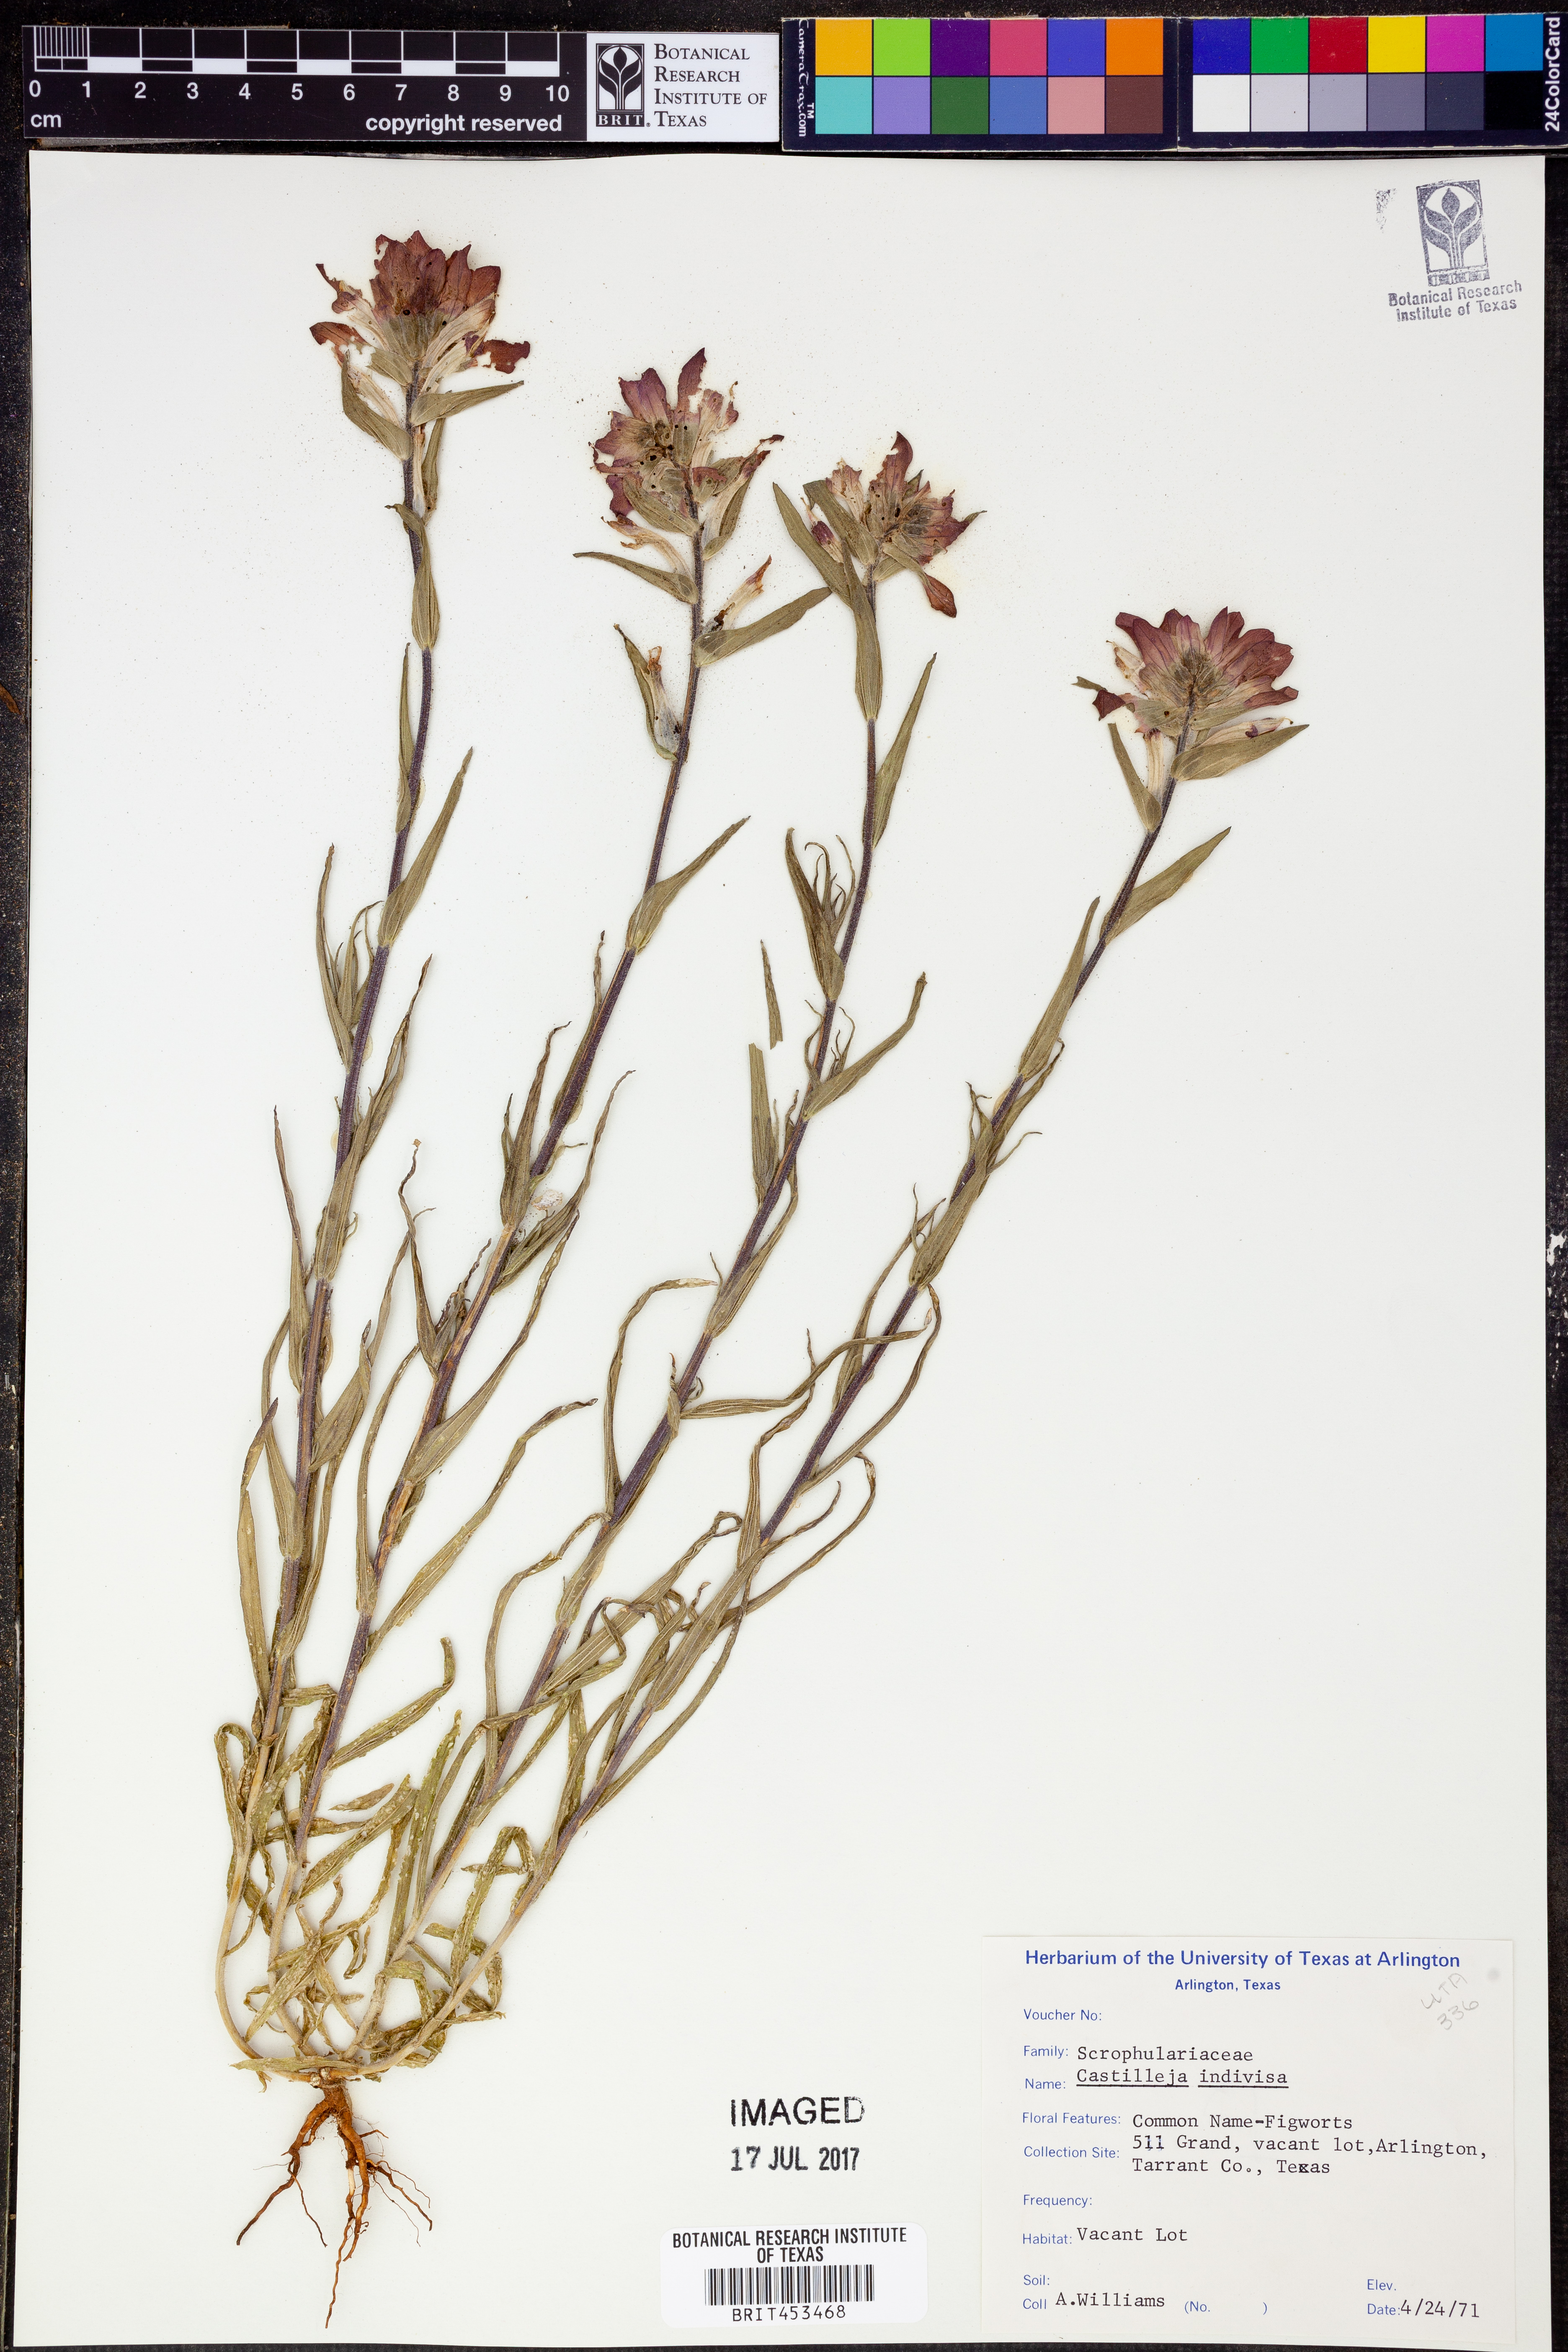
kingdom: Plantae
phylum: Tracheophyta
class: Magnoliopsida
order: Lamiales
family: Orobanchaceae
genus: Castilleja
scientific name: Castilleja indivisa
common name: Texas paintbrush
